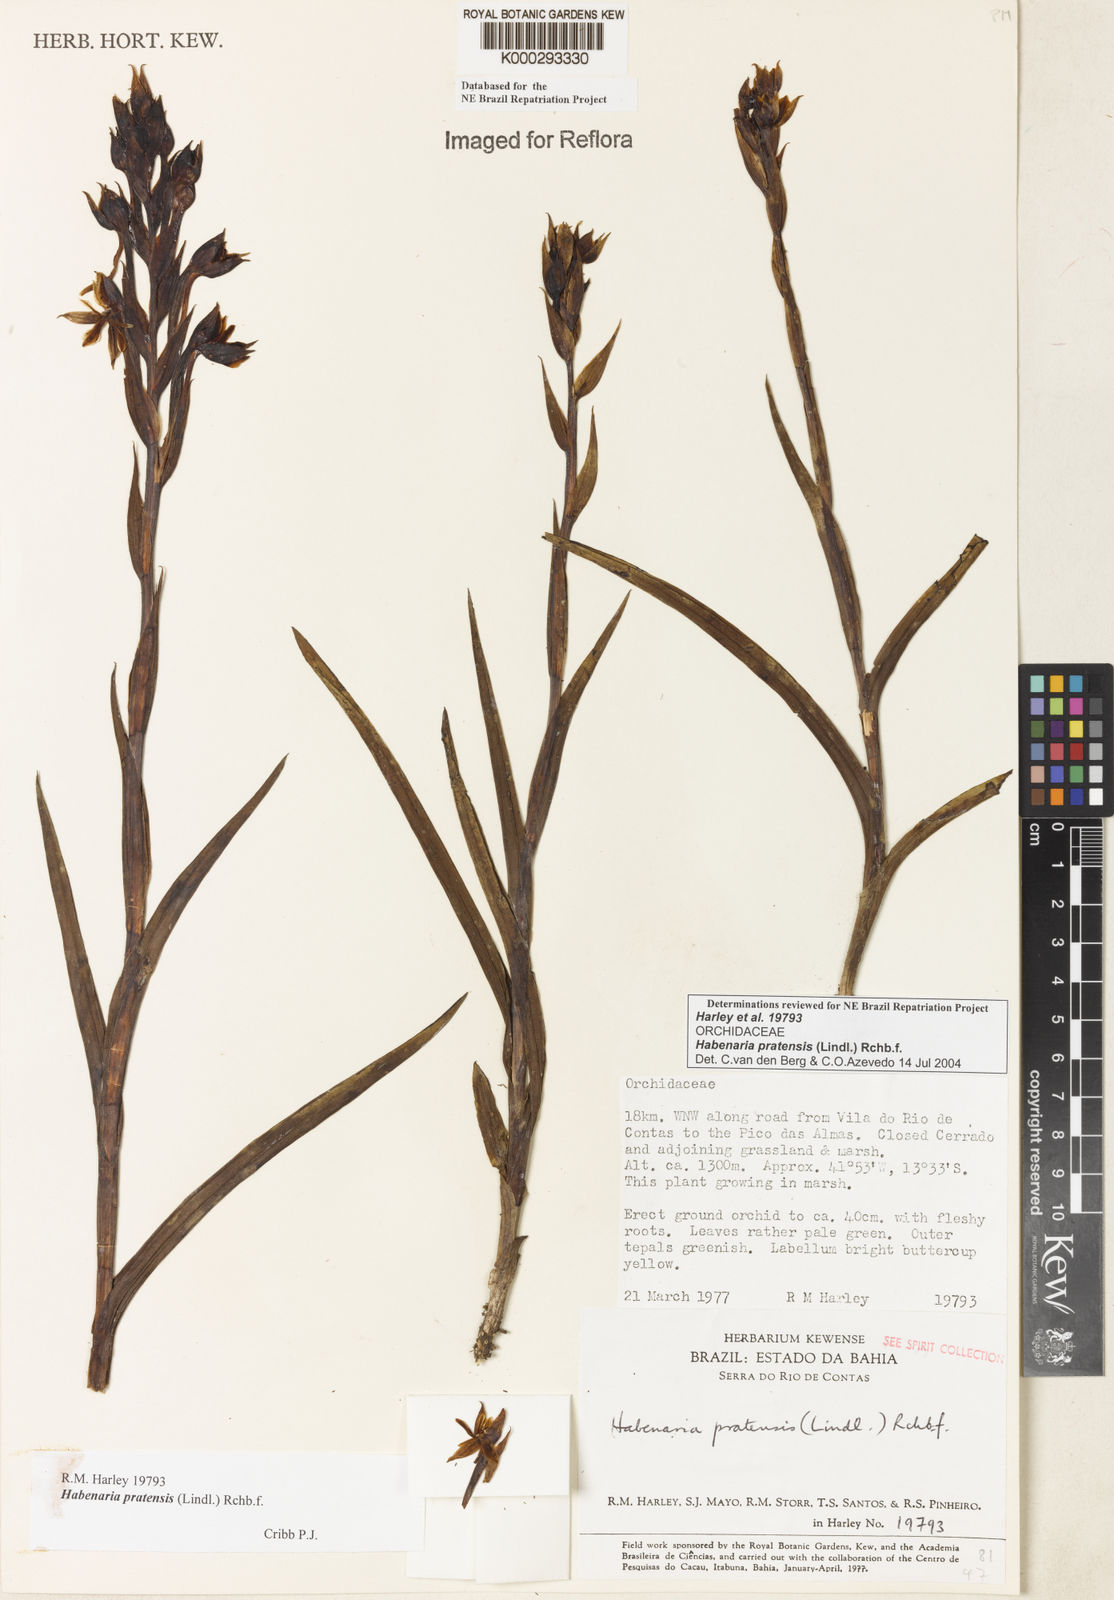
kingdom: Plantae
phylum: Tracheophyta
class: Liliopsida
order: Asparagales
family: Orchidaceae
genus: Habenaria
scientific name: Habenaria pratensis
